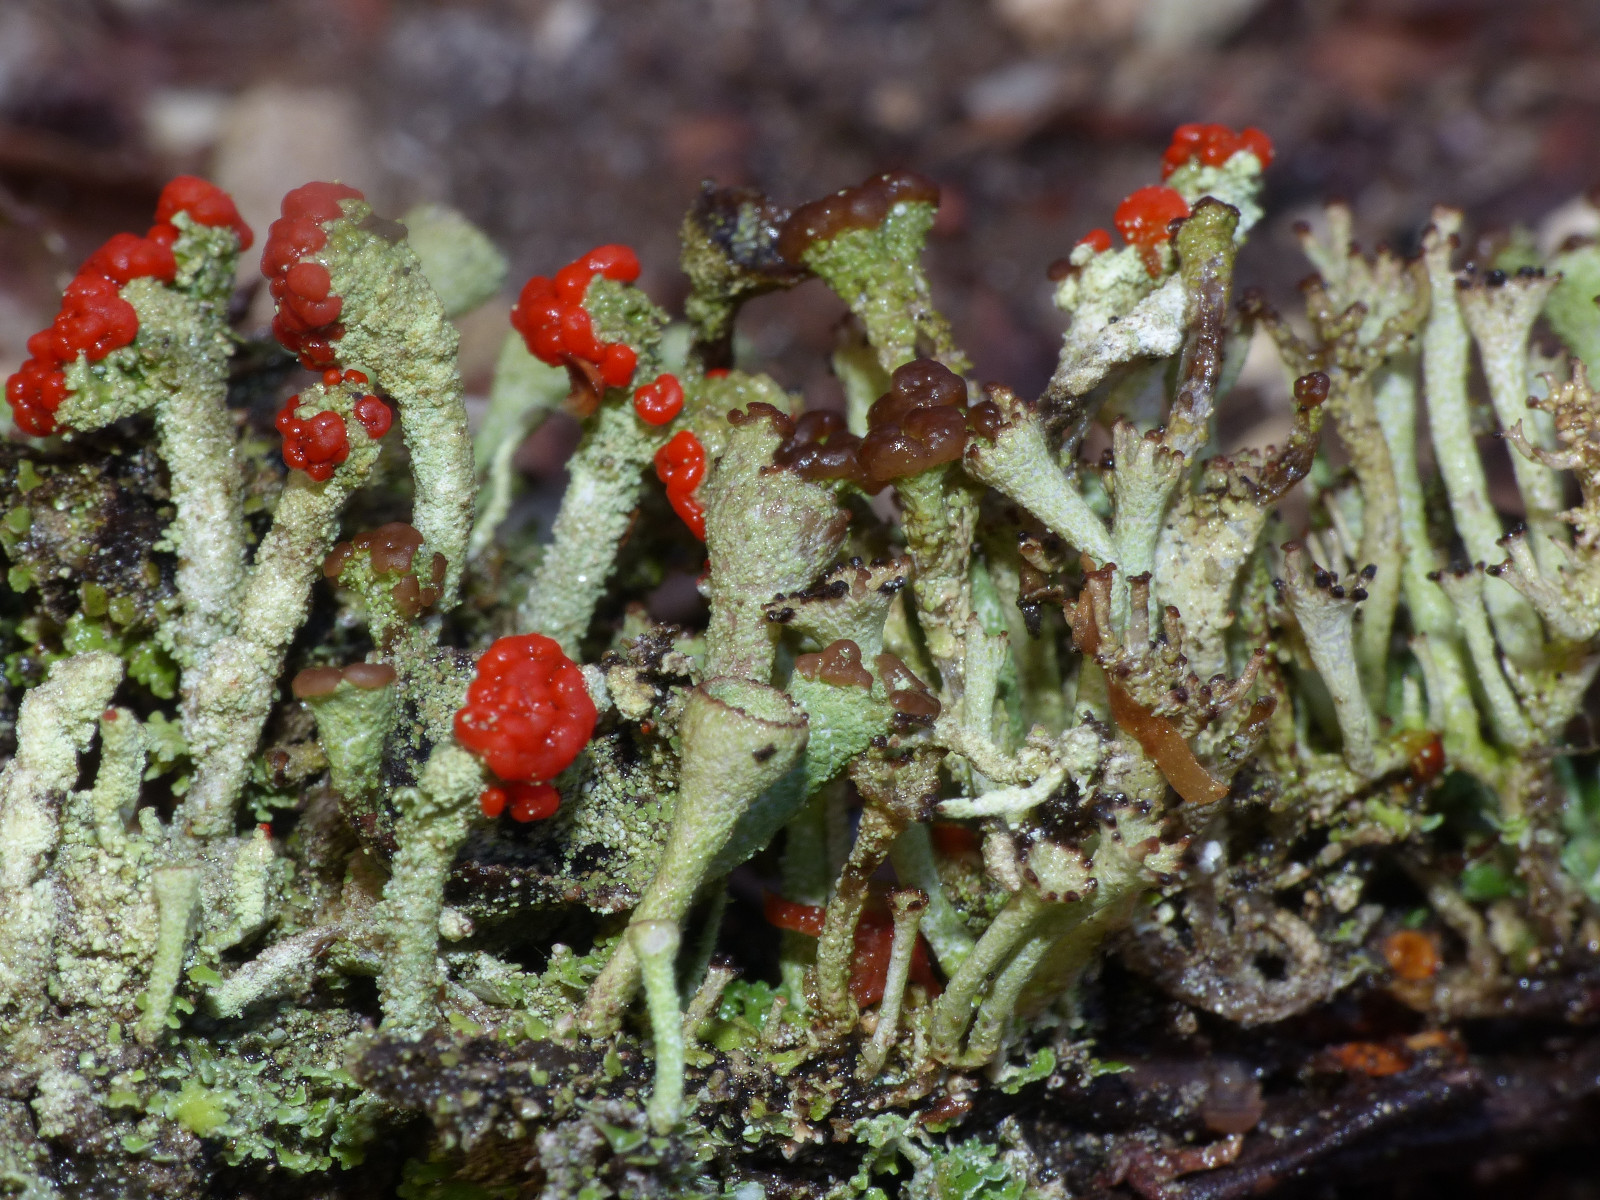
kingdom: Fungi
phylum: Ascomycota
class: Lecanoromycetes
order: Lecanorales
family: Cladoniaceae
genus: Cladonia
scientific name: Cladonia floerkeana
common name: lakrød bægerlav
